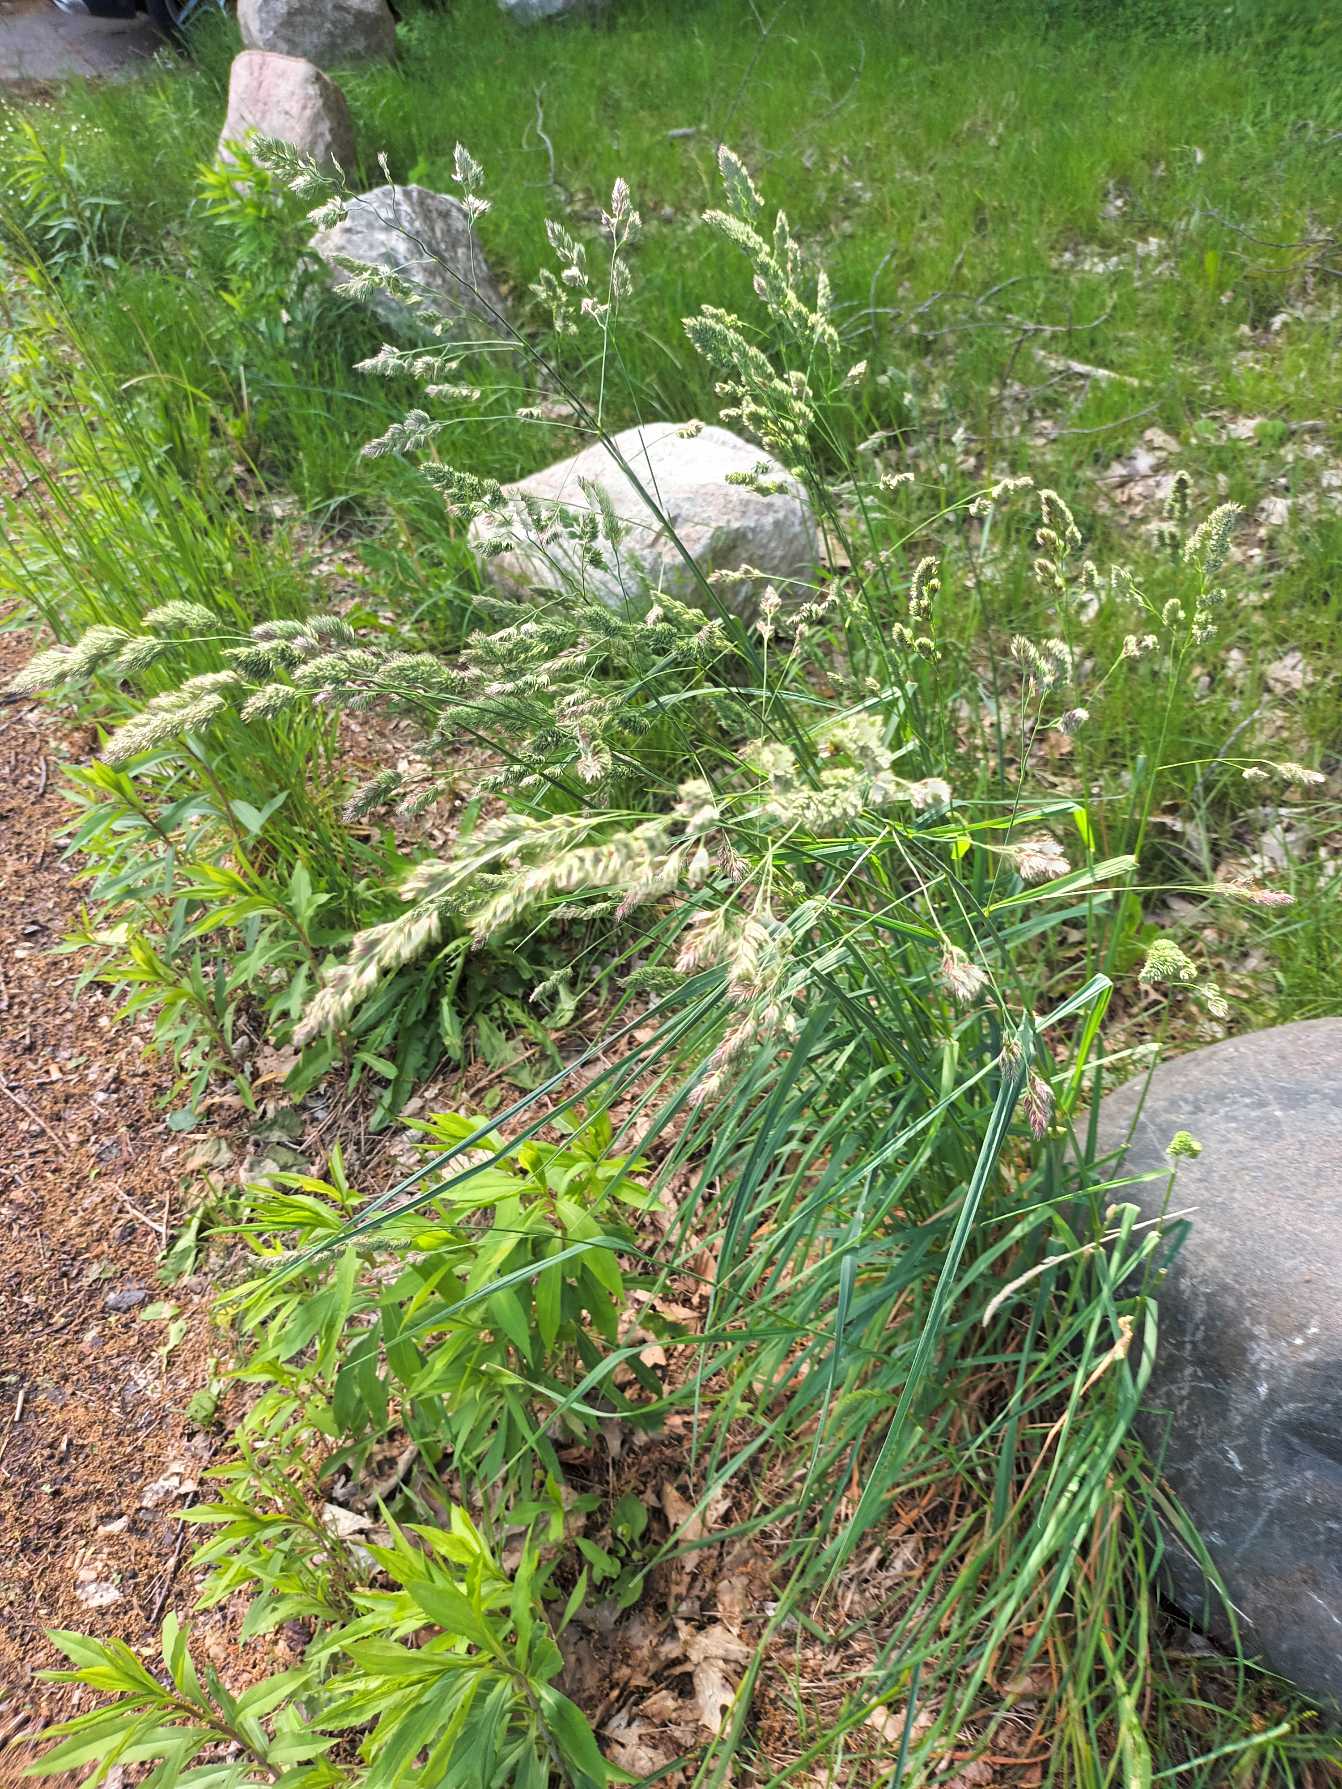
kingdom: Plantae
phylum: Tracheophyta
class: Liliopsida
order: Poales
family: Poaceae
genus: Dactylis
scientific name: Dactylis glomerata
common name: Almindelig hundegræs
